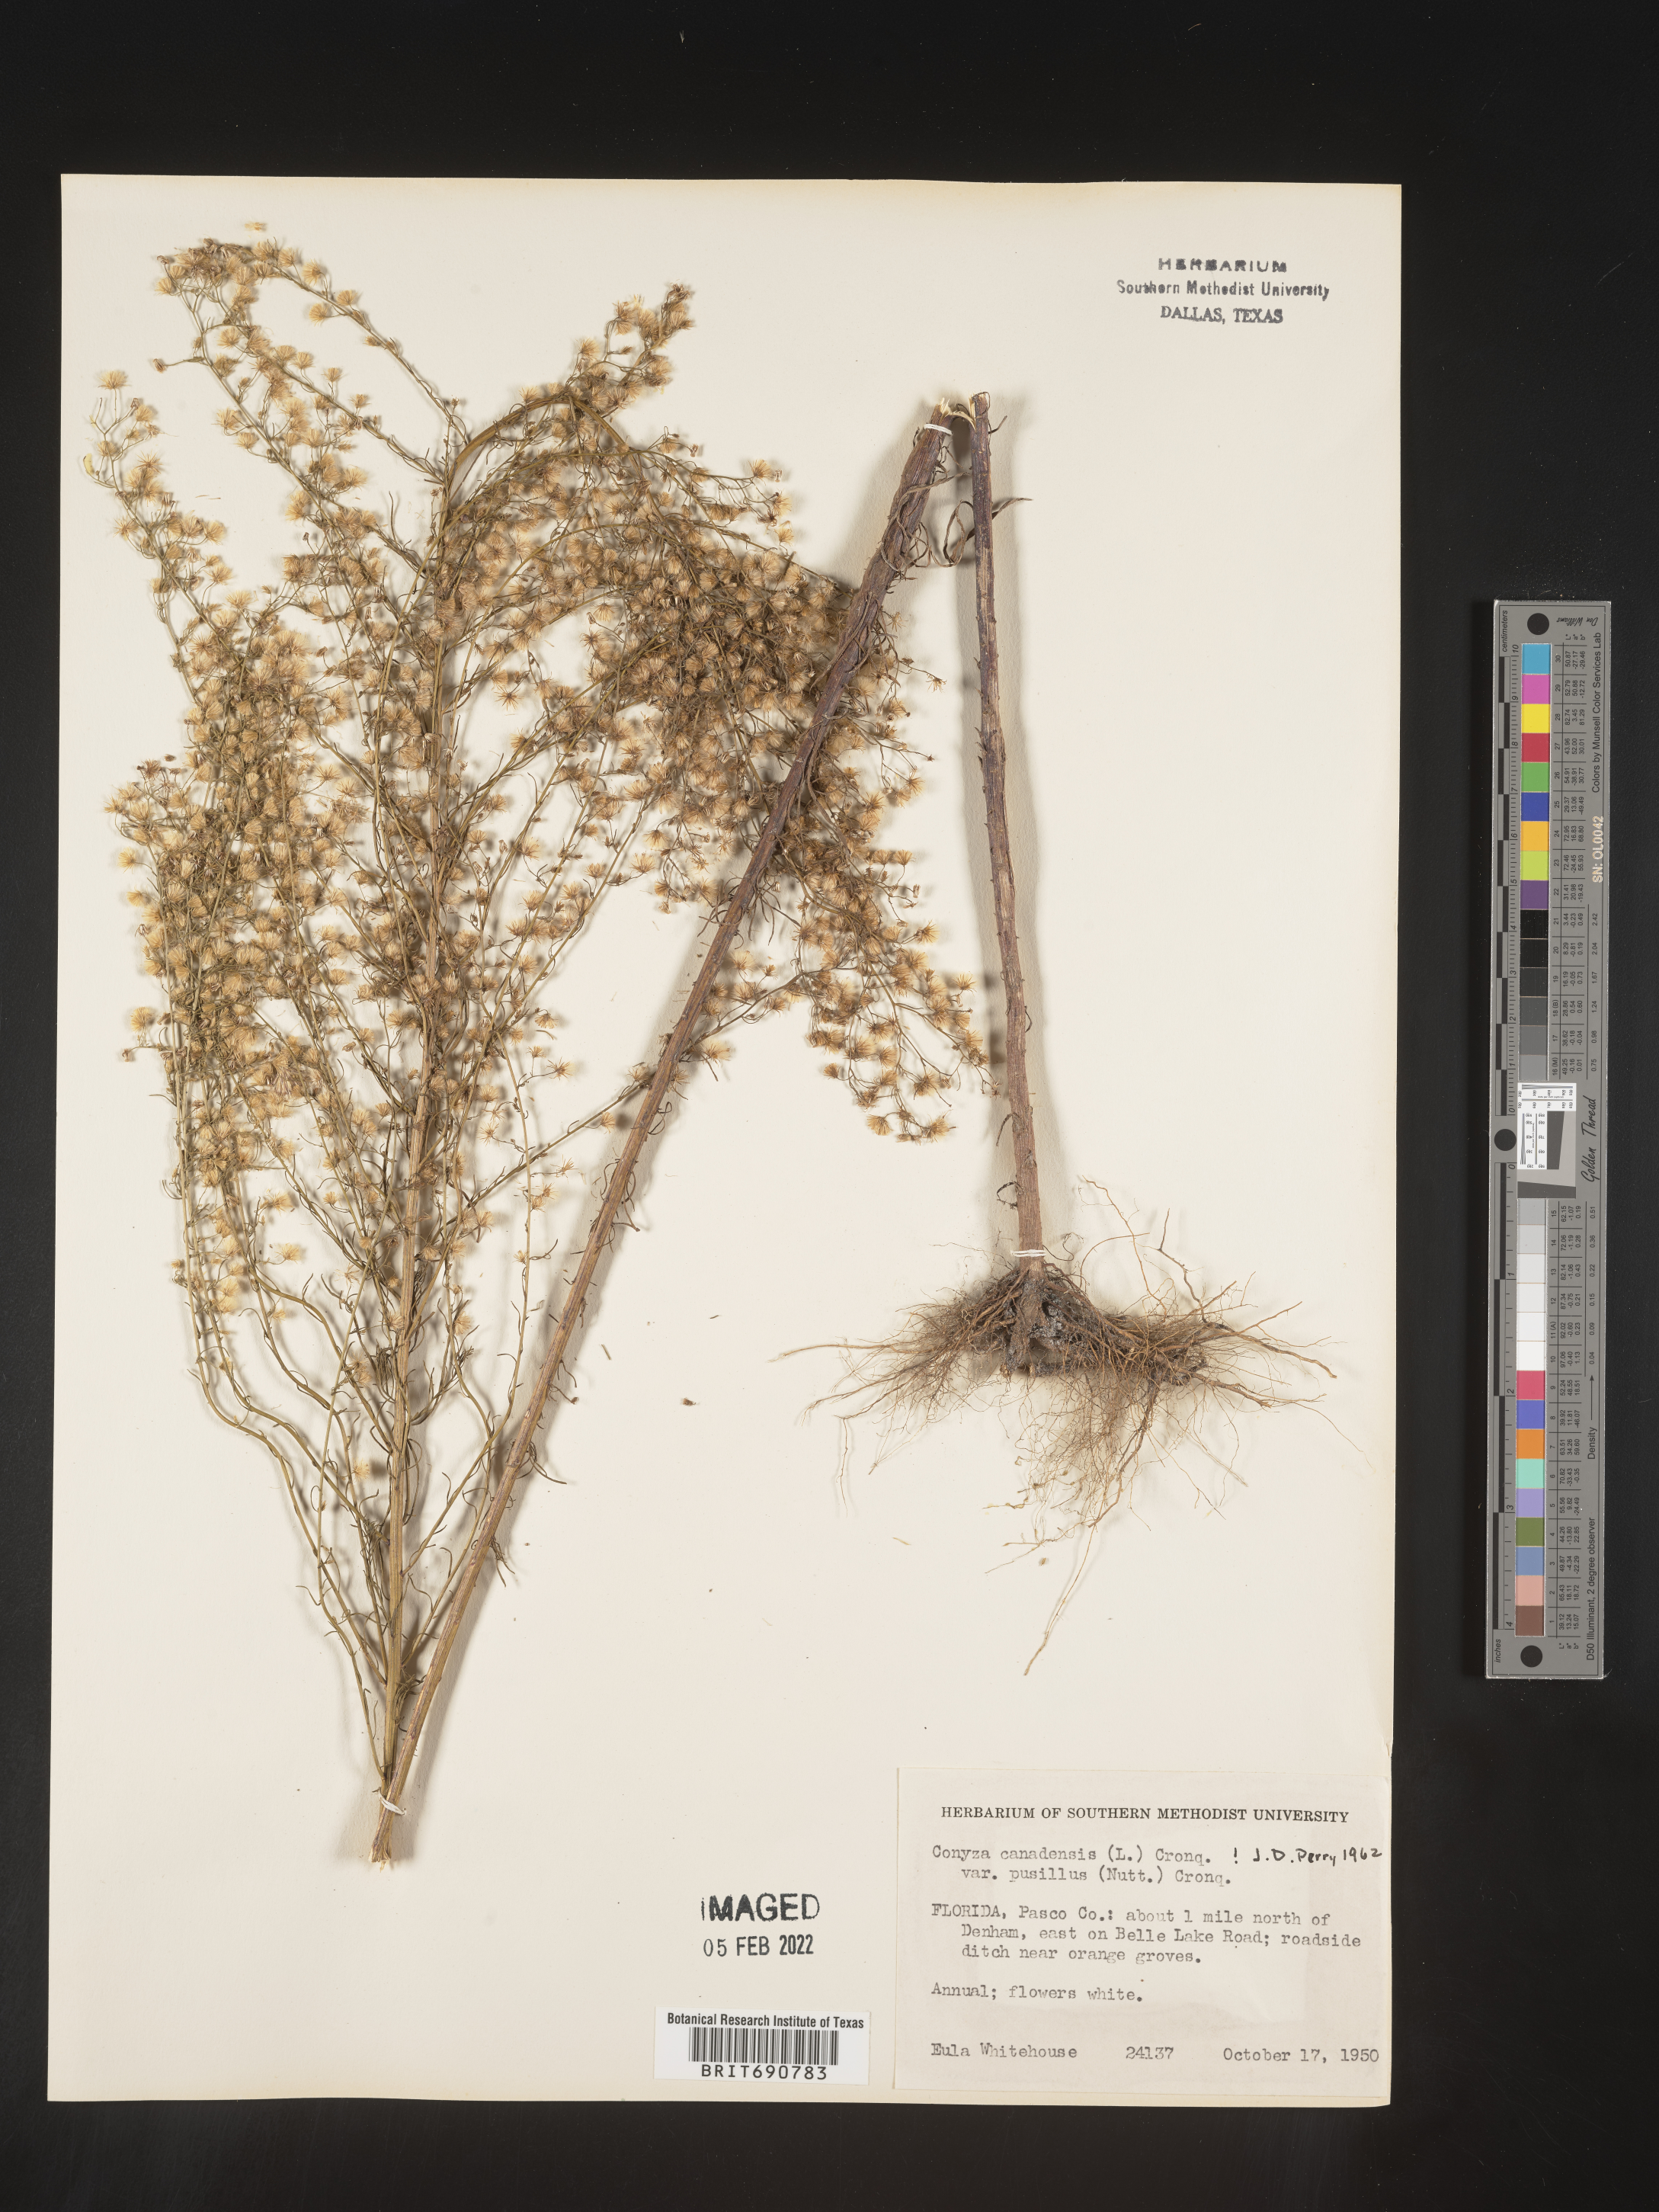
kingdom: Plantae
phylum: Tracheophyta
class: Magnoliopsida
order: Asterales
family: Asteraceae
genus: Erigeron
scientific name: Erigeron canadensis
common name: Canadian fleabane
